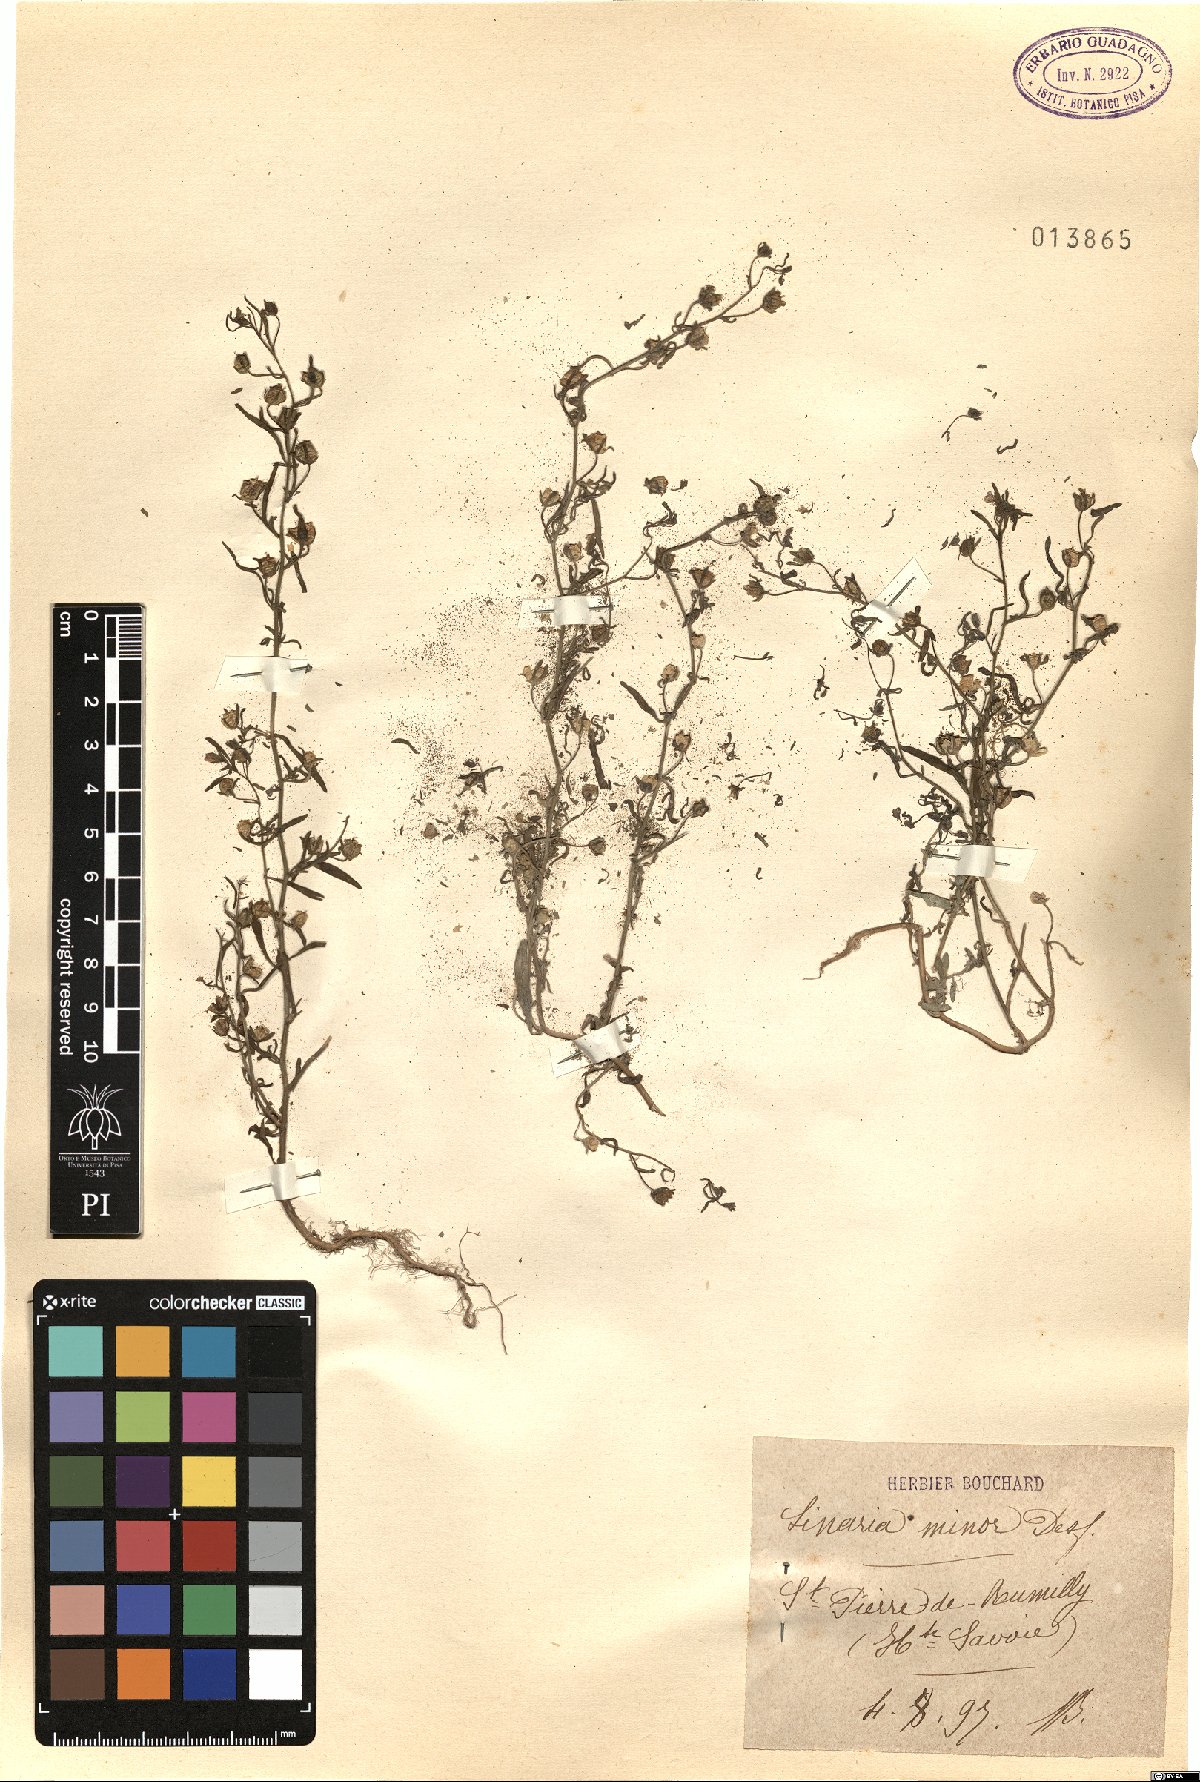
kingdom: Plantae
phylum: Tracheophyta
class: Magnoliopsida
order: Lamiales
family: Plantaginaceae
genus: Chaenorhinum
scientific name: Chaenorhinum minus
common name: Dwarf snapdragon
